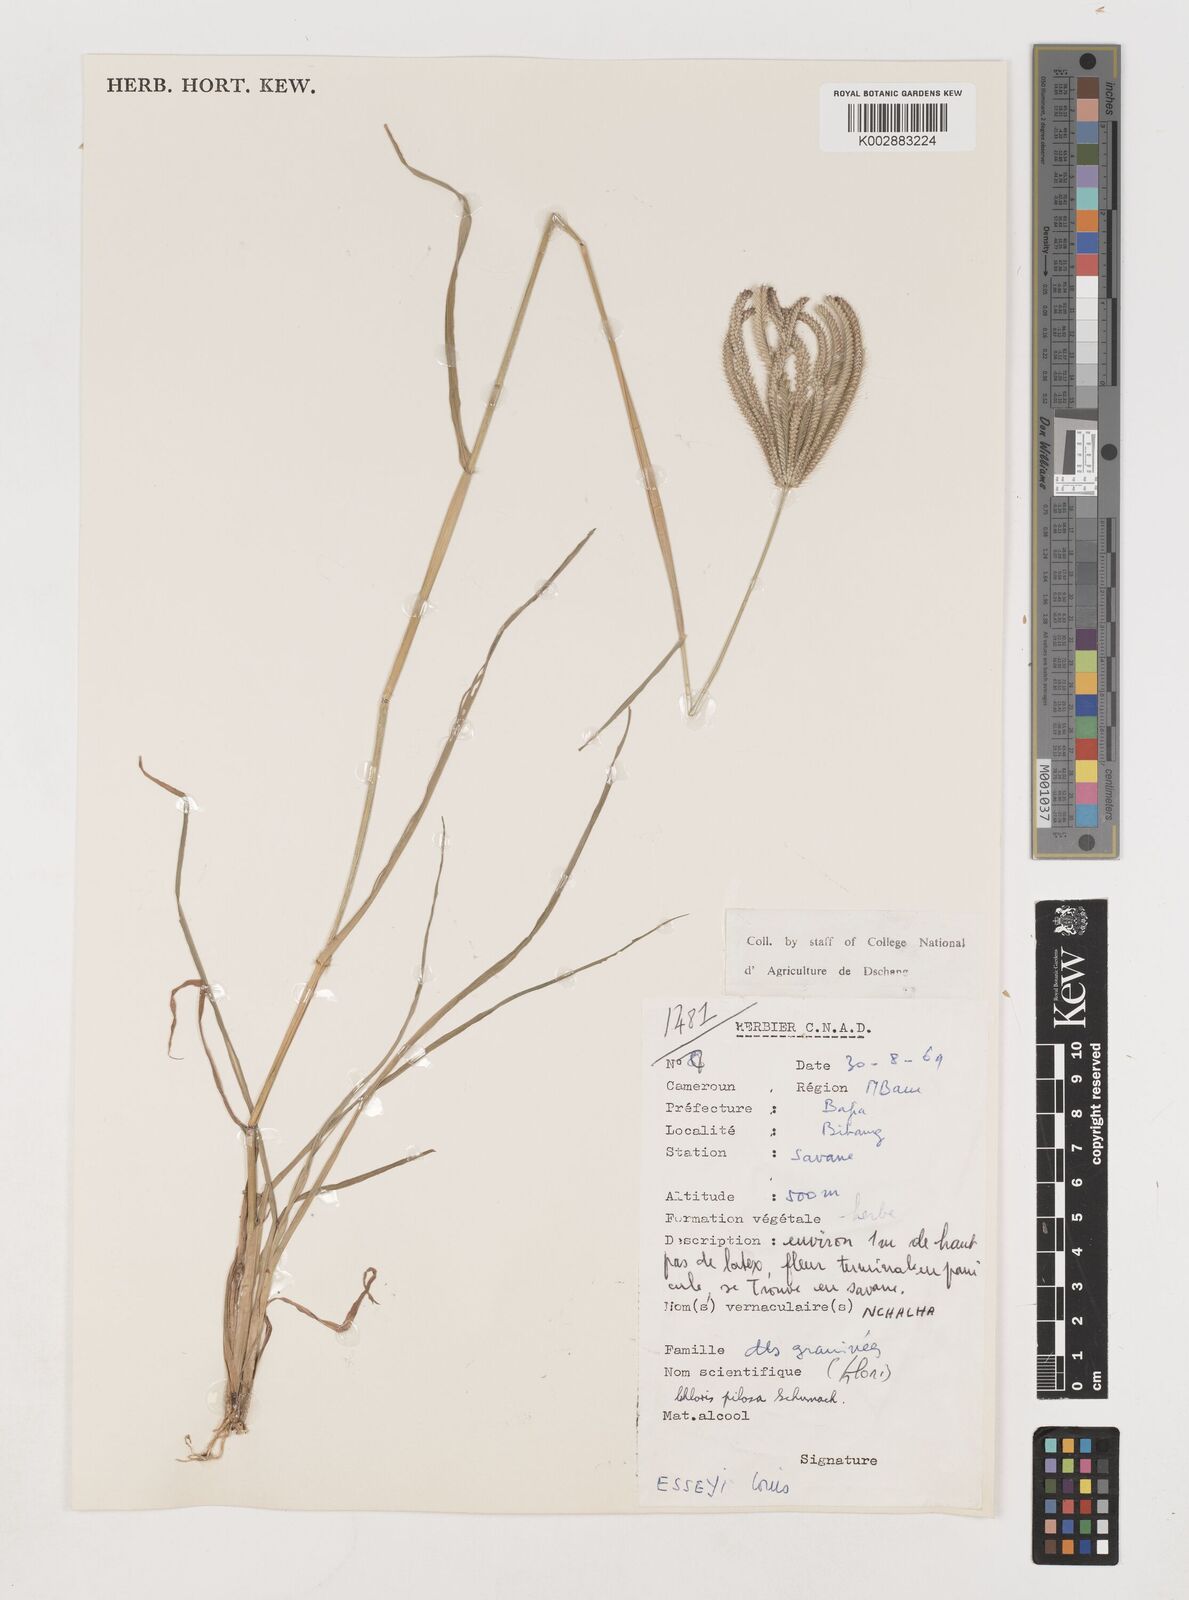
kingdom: Plantae
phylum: Tracheophyta
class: Liliopsida
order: Poales
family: Poaceae
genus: Chloris
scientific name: Chloris pilosa
